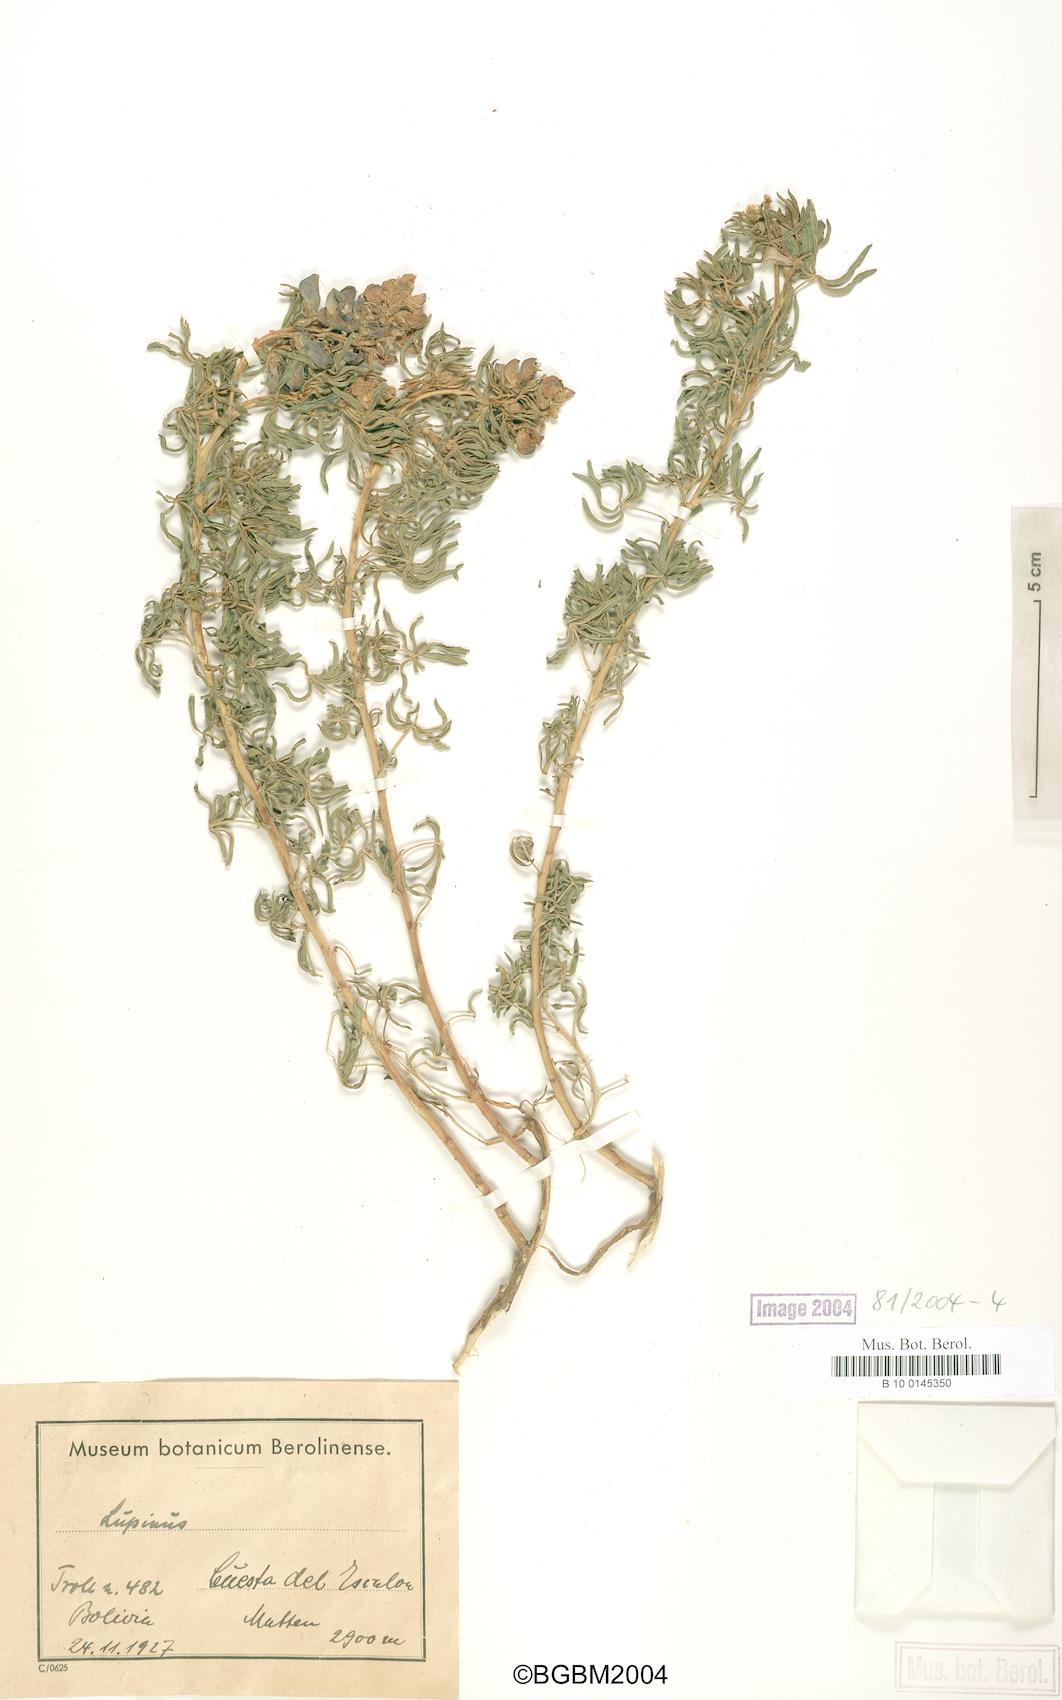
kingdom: Plantae
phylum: Tracheophyta
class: Magnoliopsida
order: Fabales
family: Fabaceae
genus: Lupinus
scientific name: Lupinus
